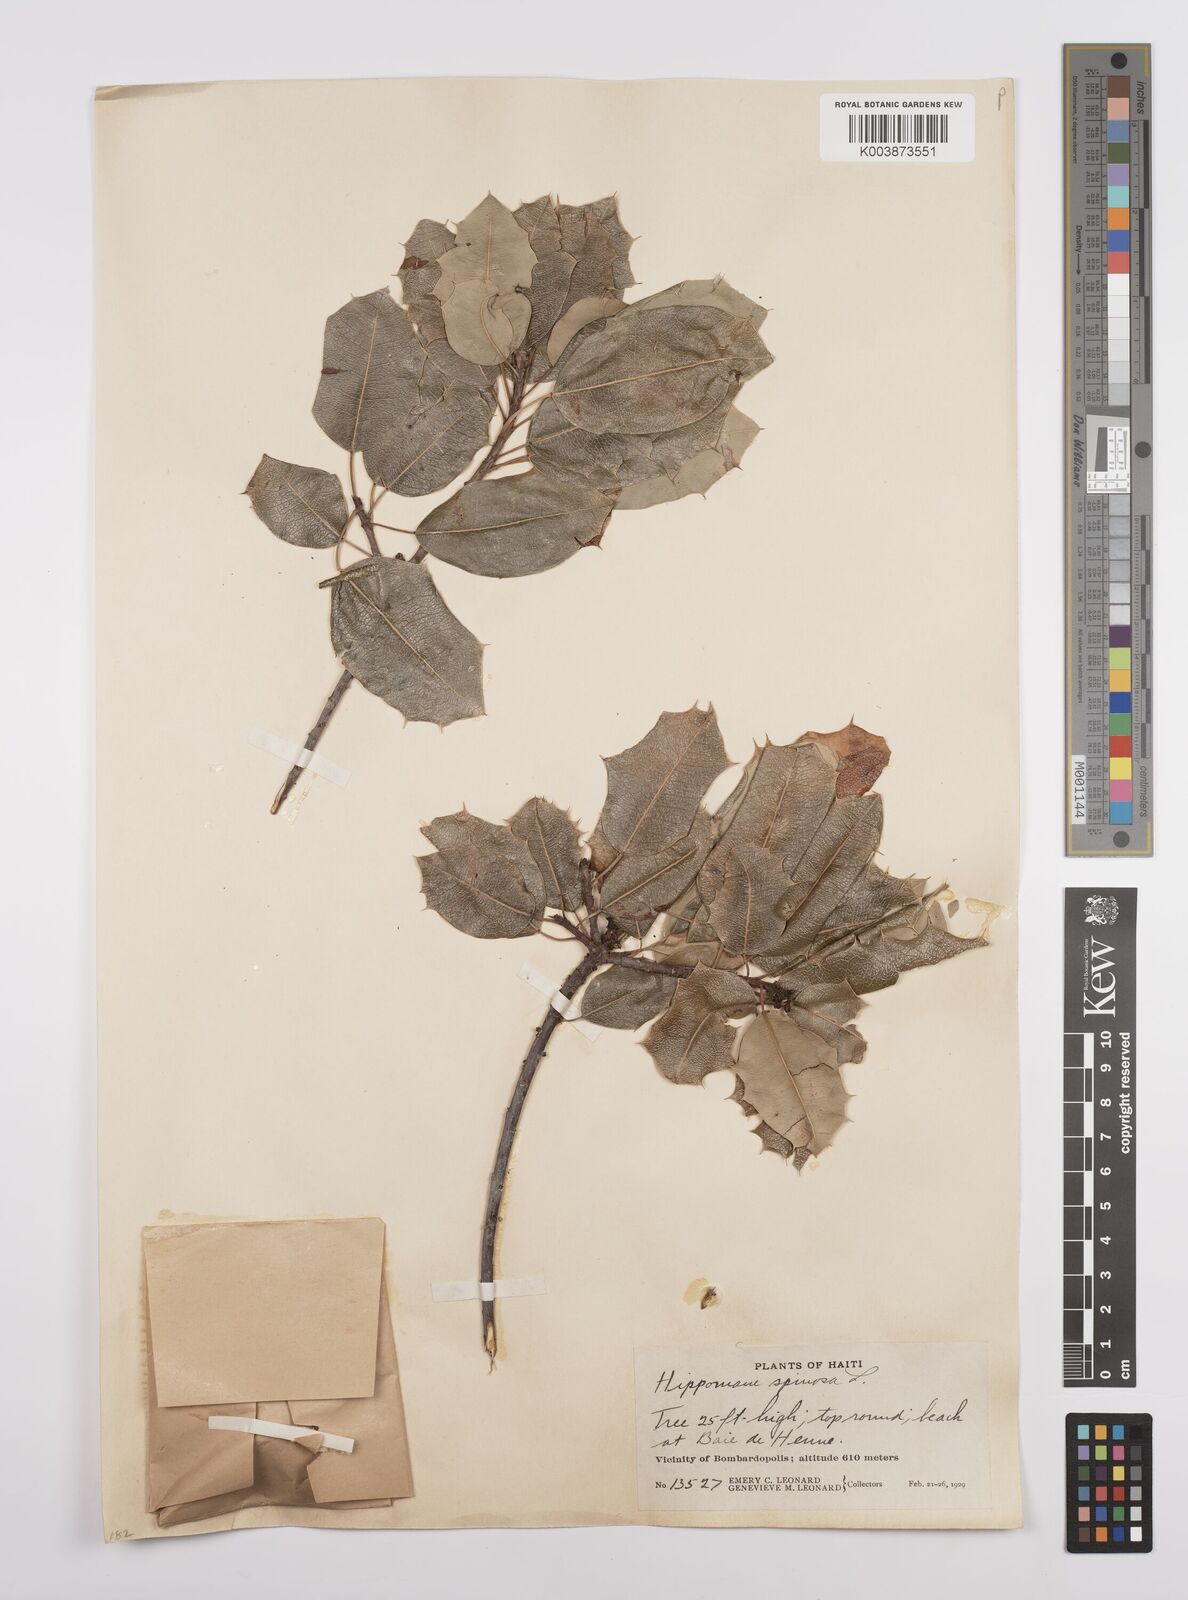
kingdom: Plantae
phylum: Tracheophyta
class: Magnoliopsida
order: Malpighiales
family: Euphorbiaceae
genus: Hippomane
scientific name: Hippomane spinosa
